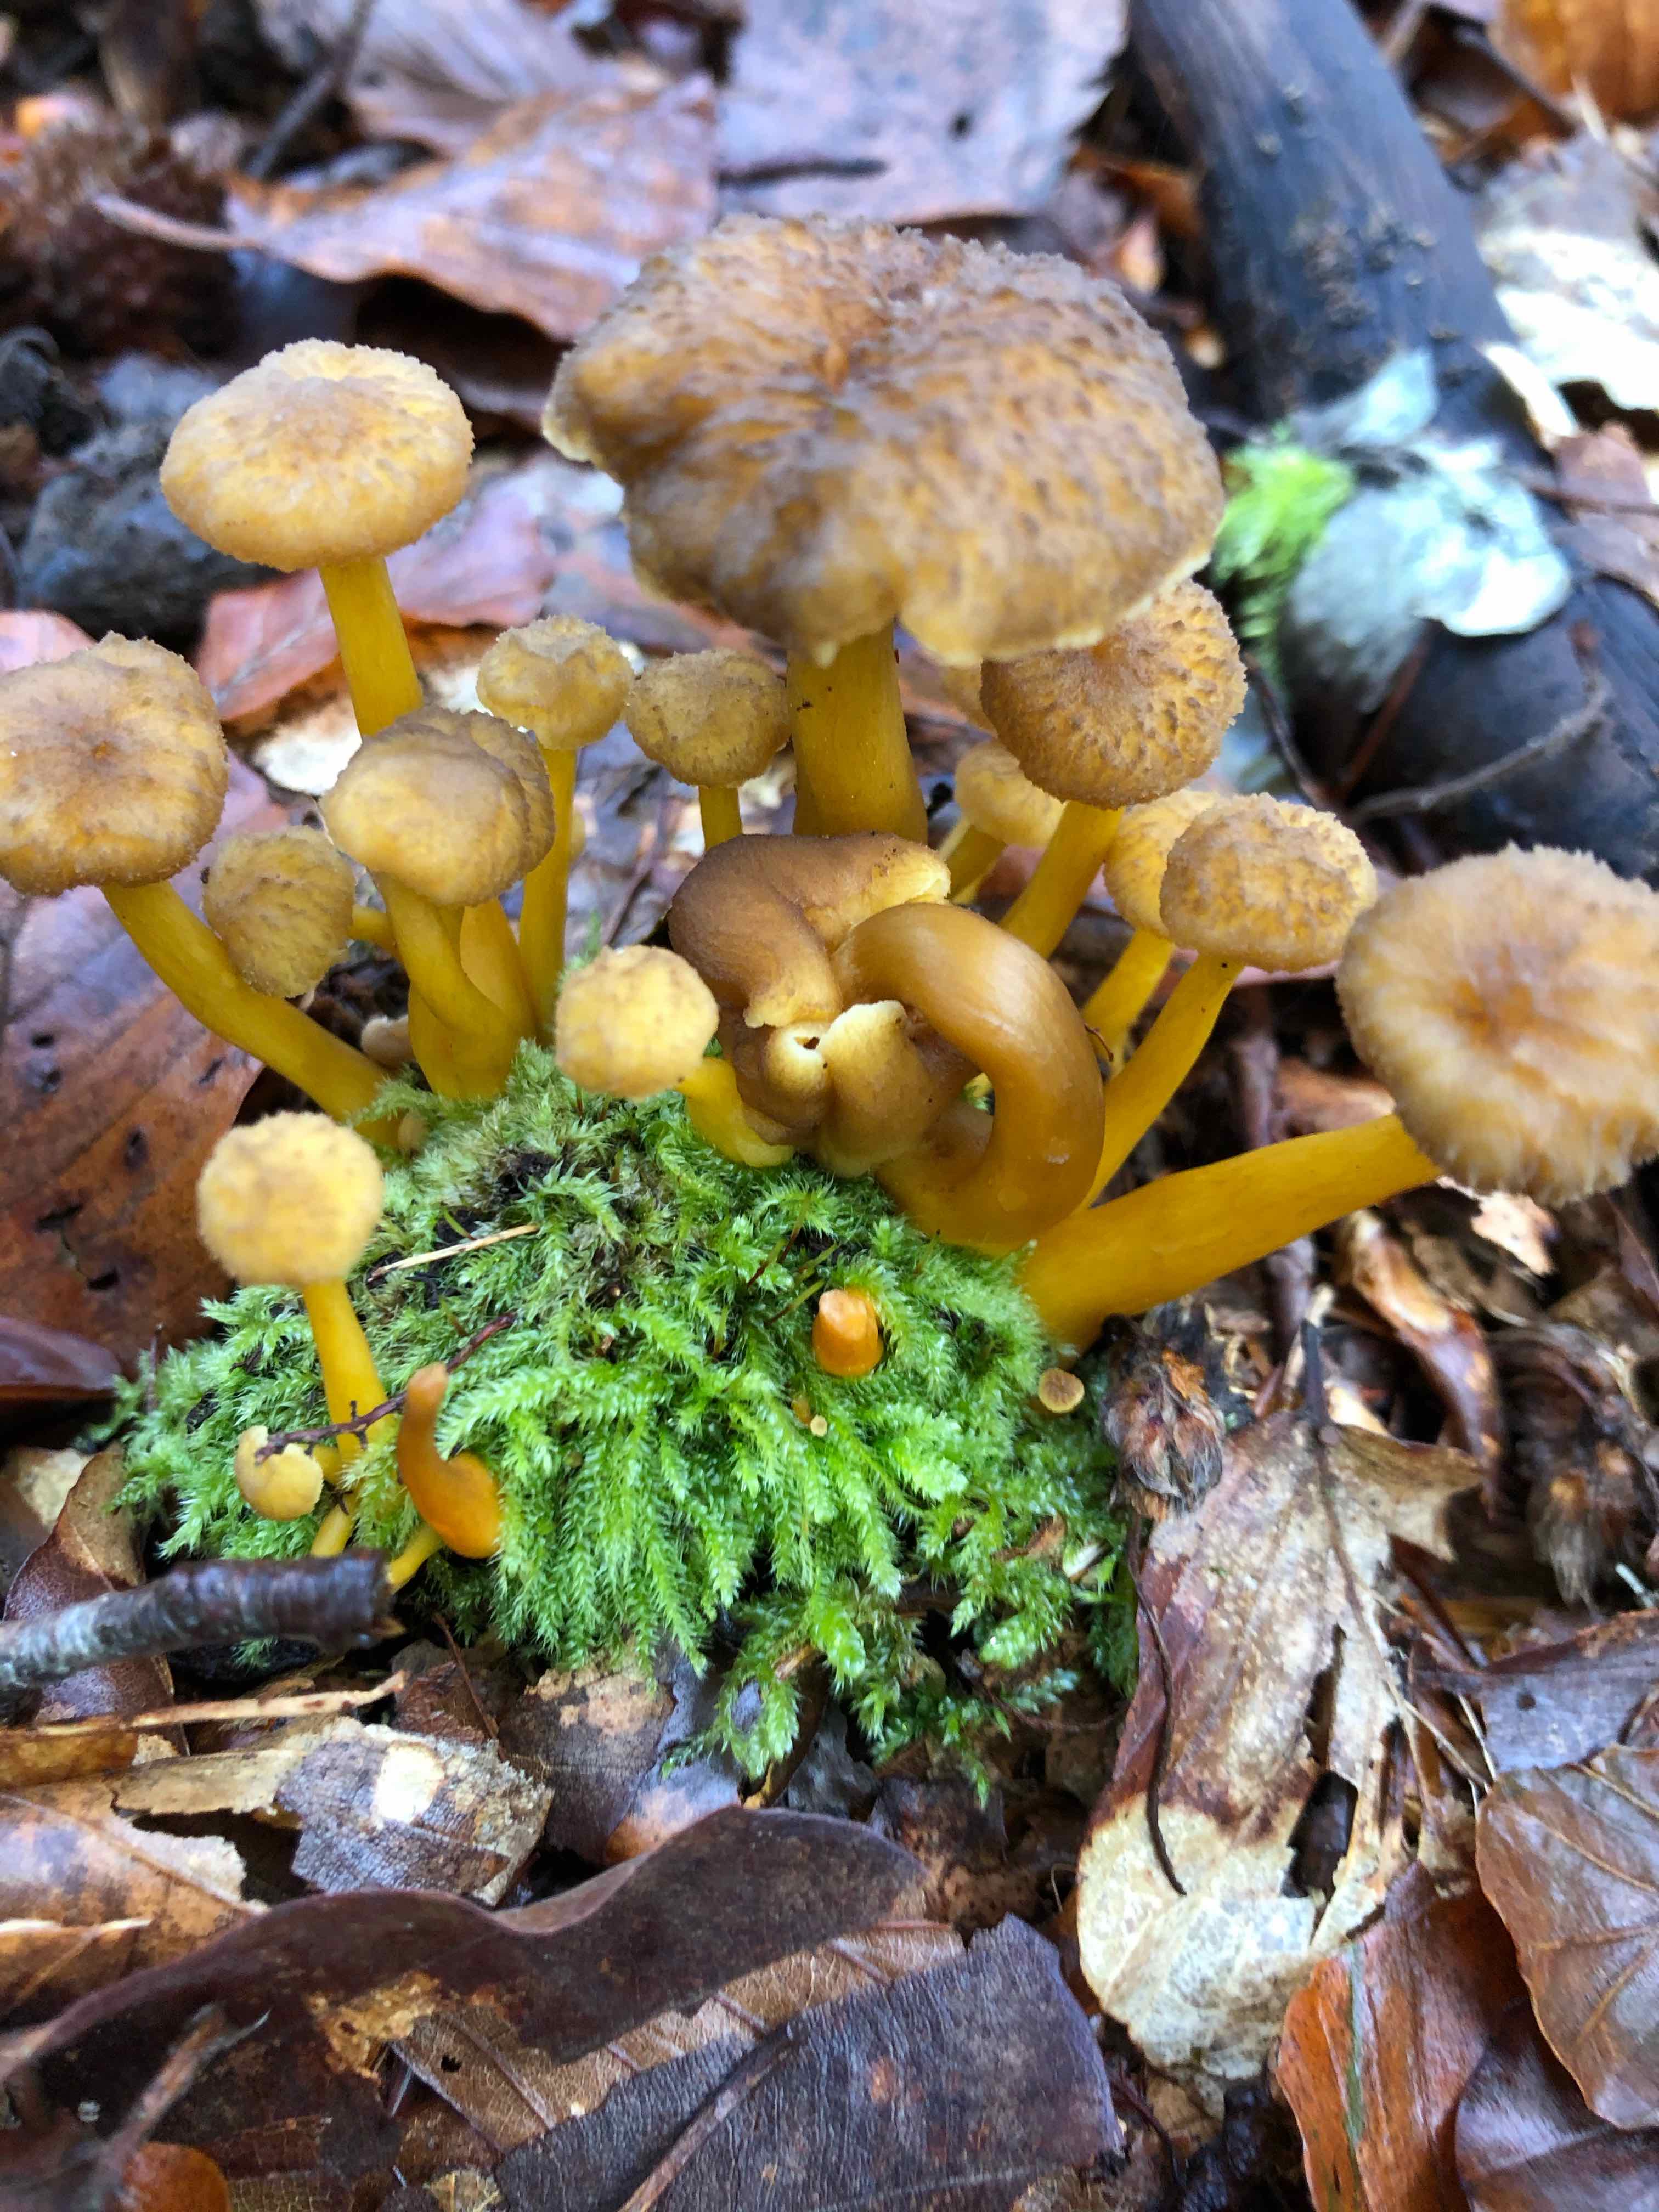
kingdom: Fungi
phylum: Basidiomycota
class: Agaricomycetes
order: Cantharellales
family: Hydnaceae
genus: Craterellus
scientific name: Craterellus tubaeformis
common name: tragt-kantarel
